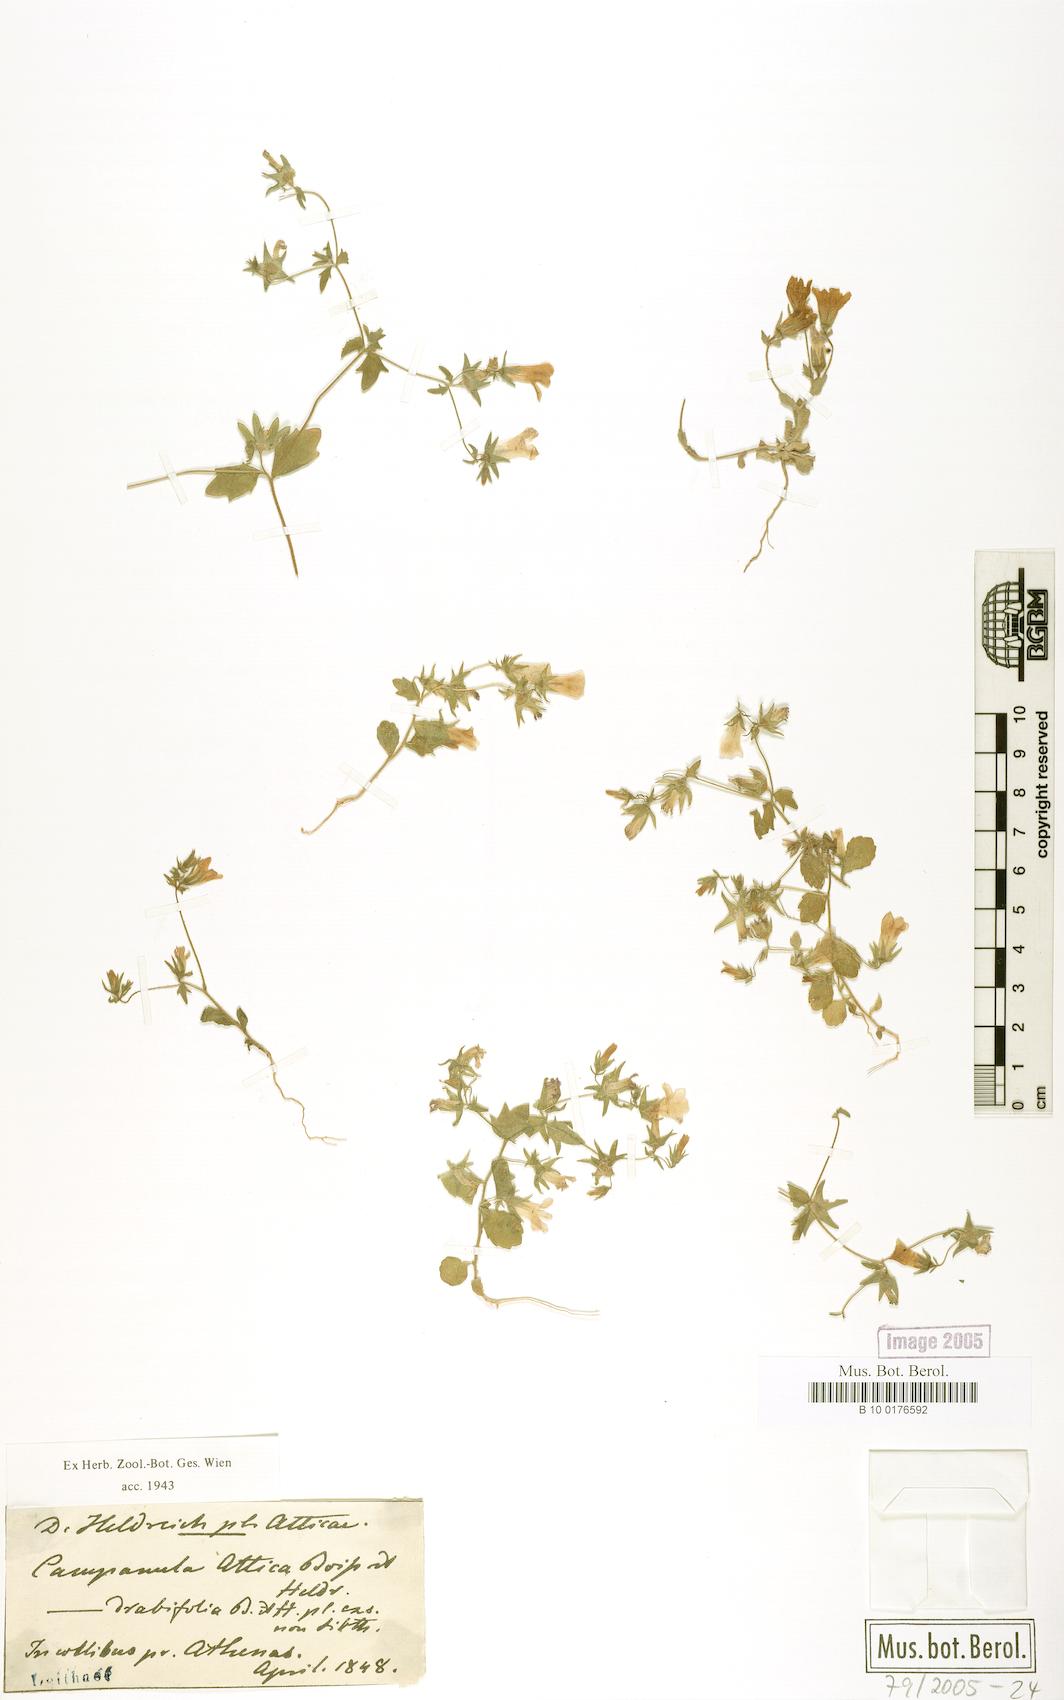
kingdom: Plantae
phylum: Tracheophyta
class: Magnoliopsida
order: Asterales
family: Campanulaceae
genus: Campanula
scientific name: Campanula drabifolia
